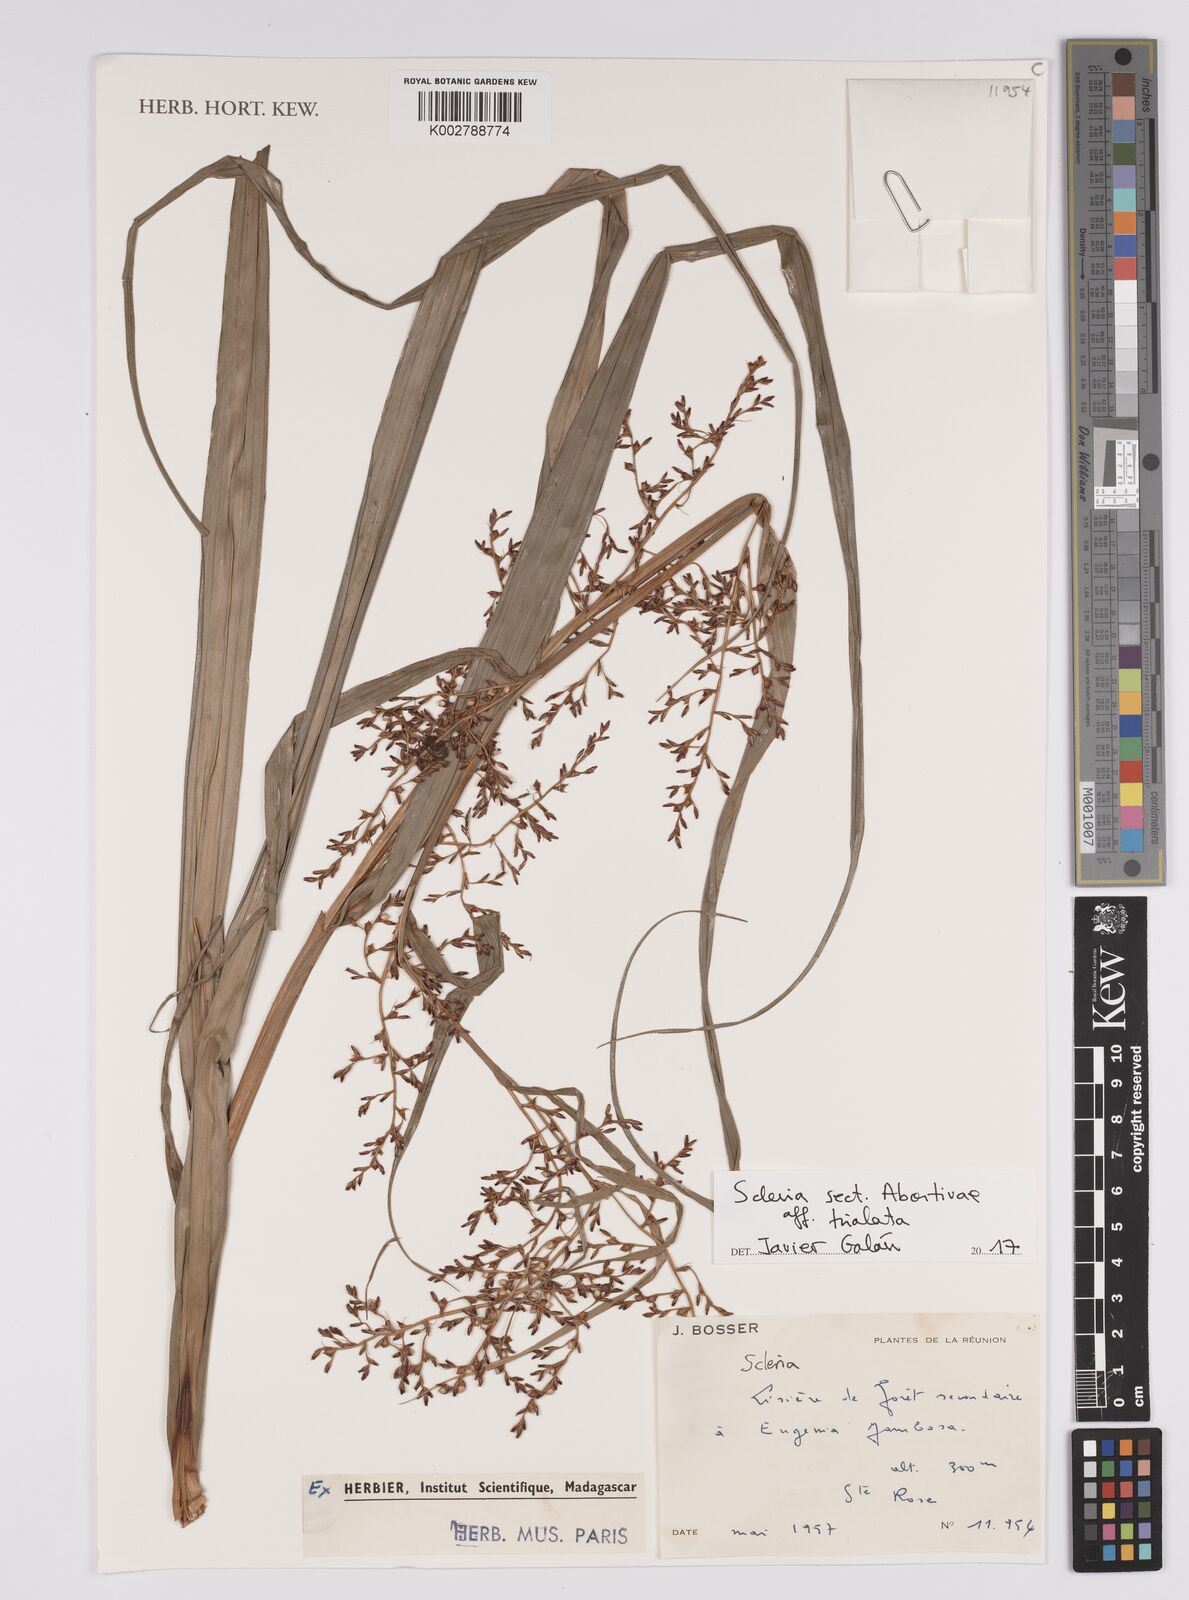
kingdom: Plantae
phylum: Tracheophyta
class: Liliopsida
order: Poales
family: Cyperaceae
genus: Scleria
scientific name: Scleria trialata
